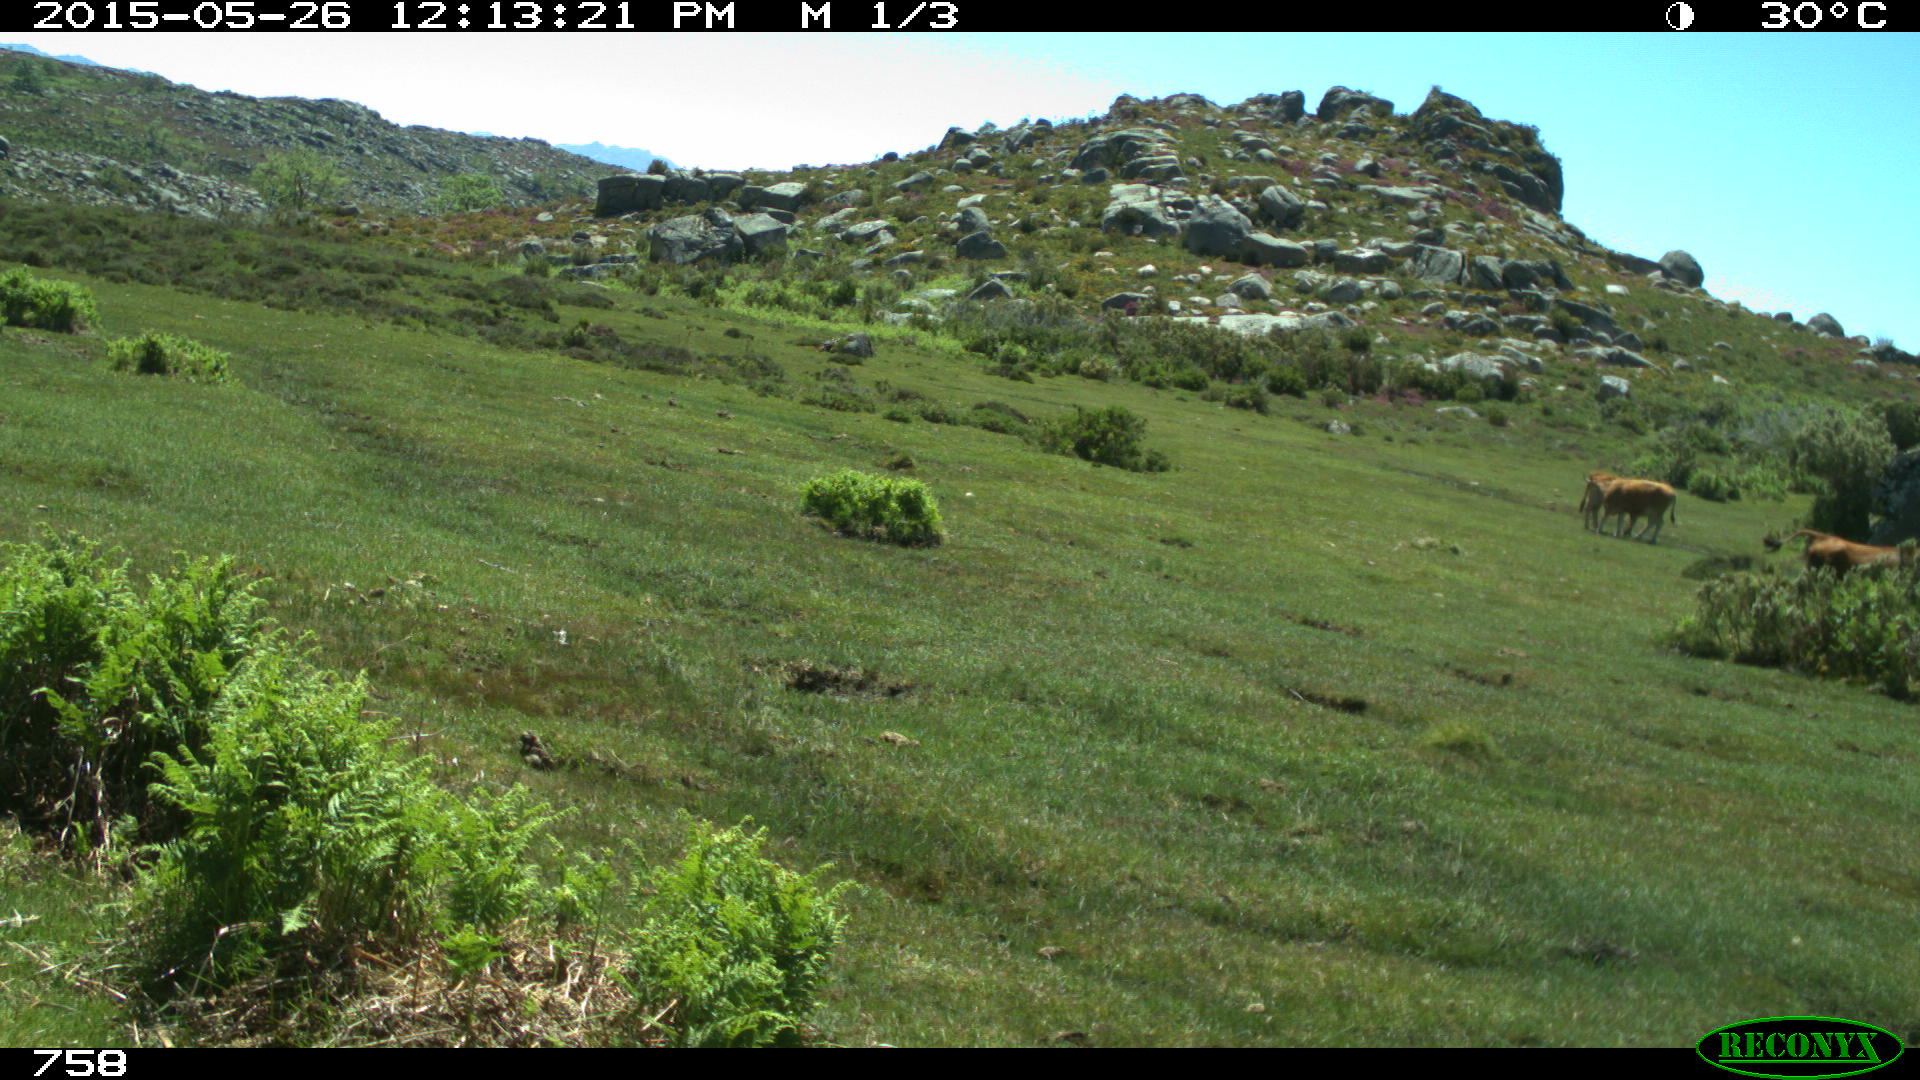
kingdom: Animalia
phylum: Chordata
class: Mammalia
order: Artiodactyla
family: Bovidae
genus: Bos
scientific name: Bos taurus
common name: Domesticated cattle
